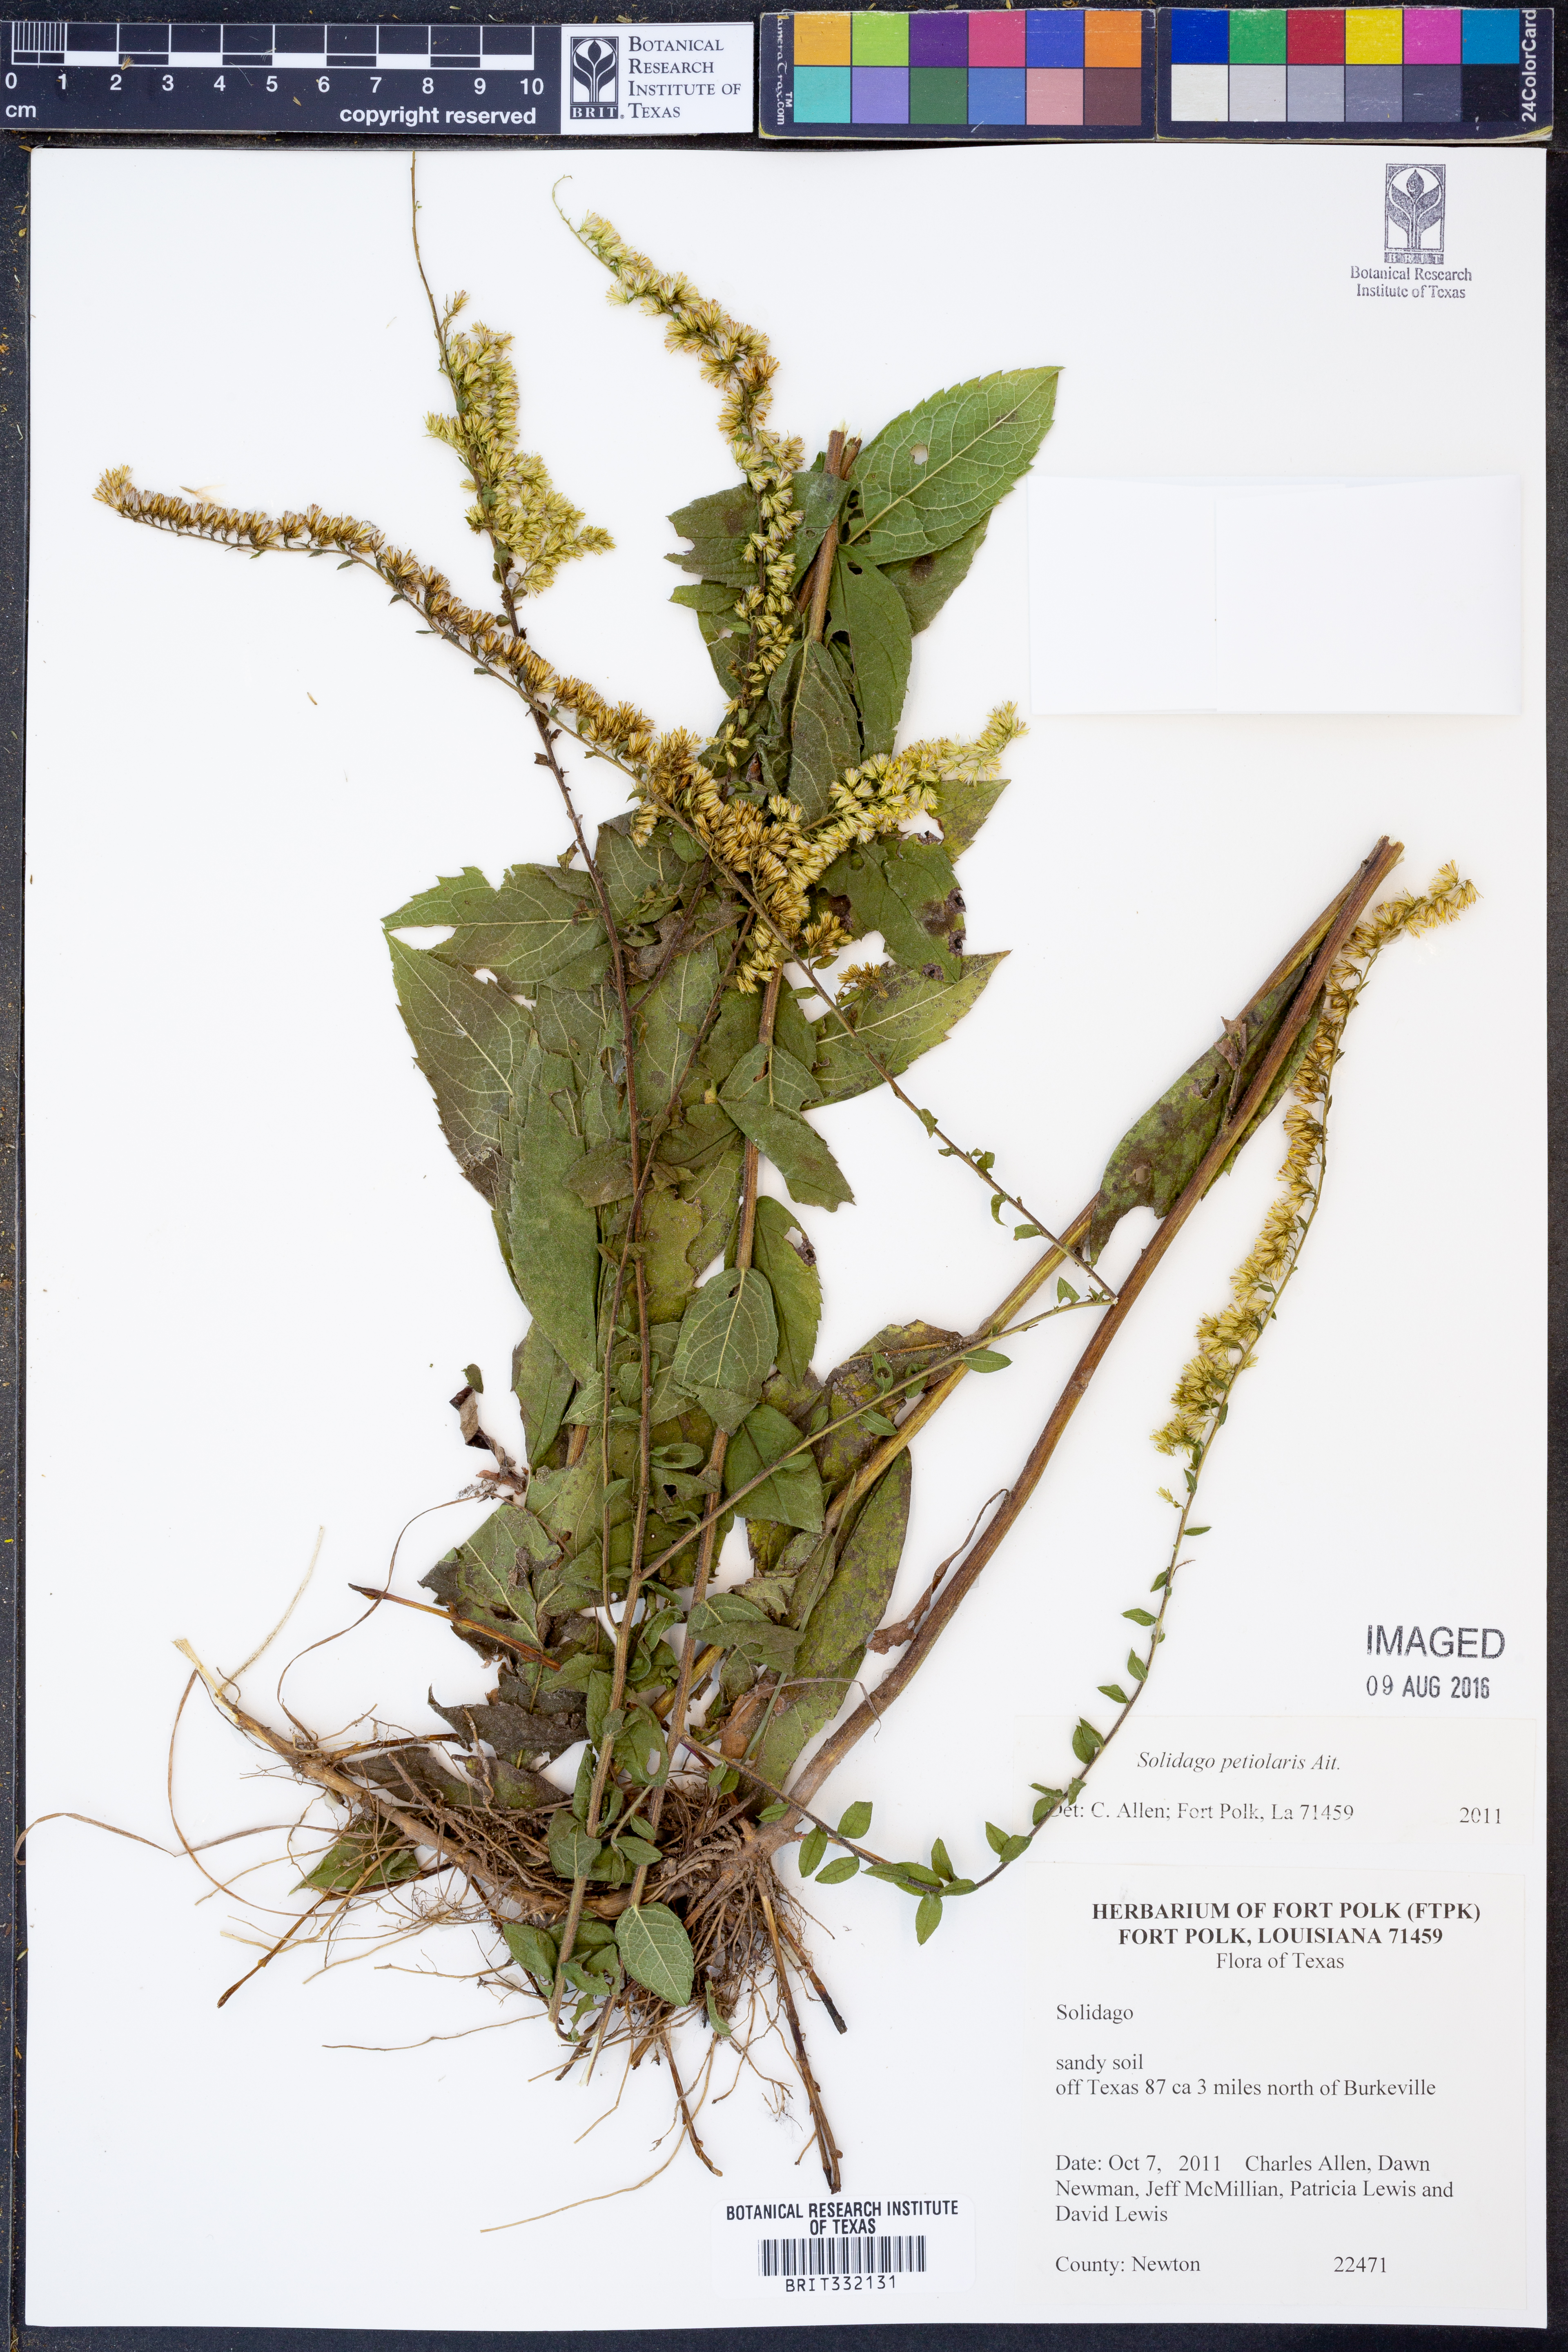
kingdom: Plantae
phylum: Tracheophyta
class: Magnoliopsida
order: Asterales
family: Asteraceae
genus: Solidago
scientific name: Solidago petiolaris
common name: Downy ragged goldenrod
